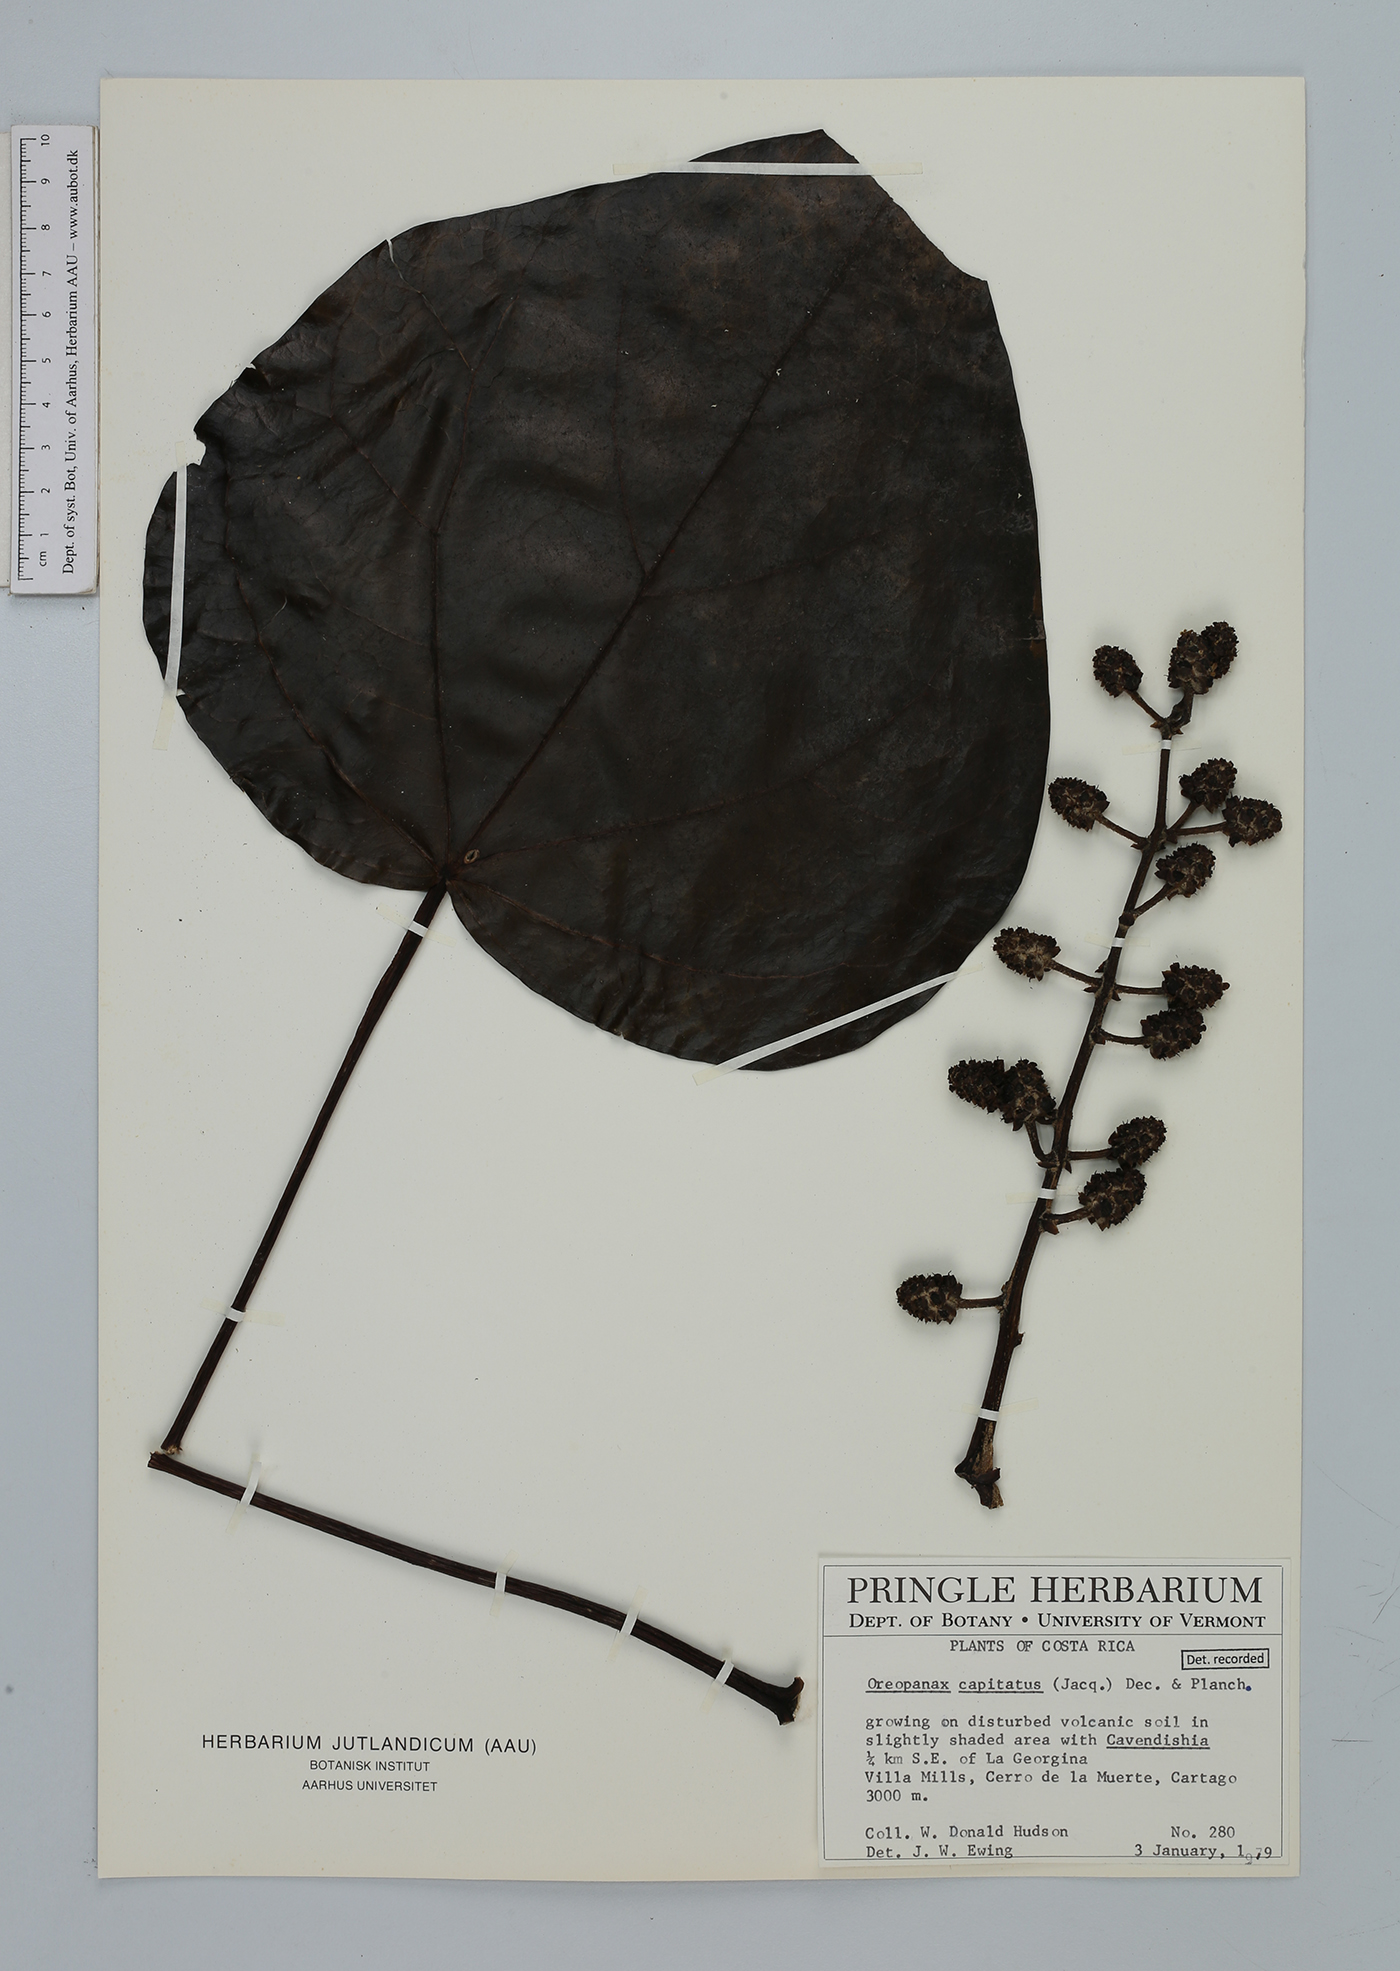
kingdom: Plantae
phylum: Tracheophyta
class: Magnoliopsida
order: Apiales
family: Araliaceae
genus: Oreopanax
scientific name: Oreopanax capitatus
